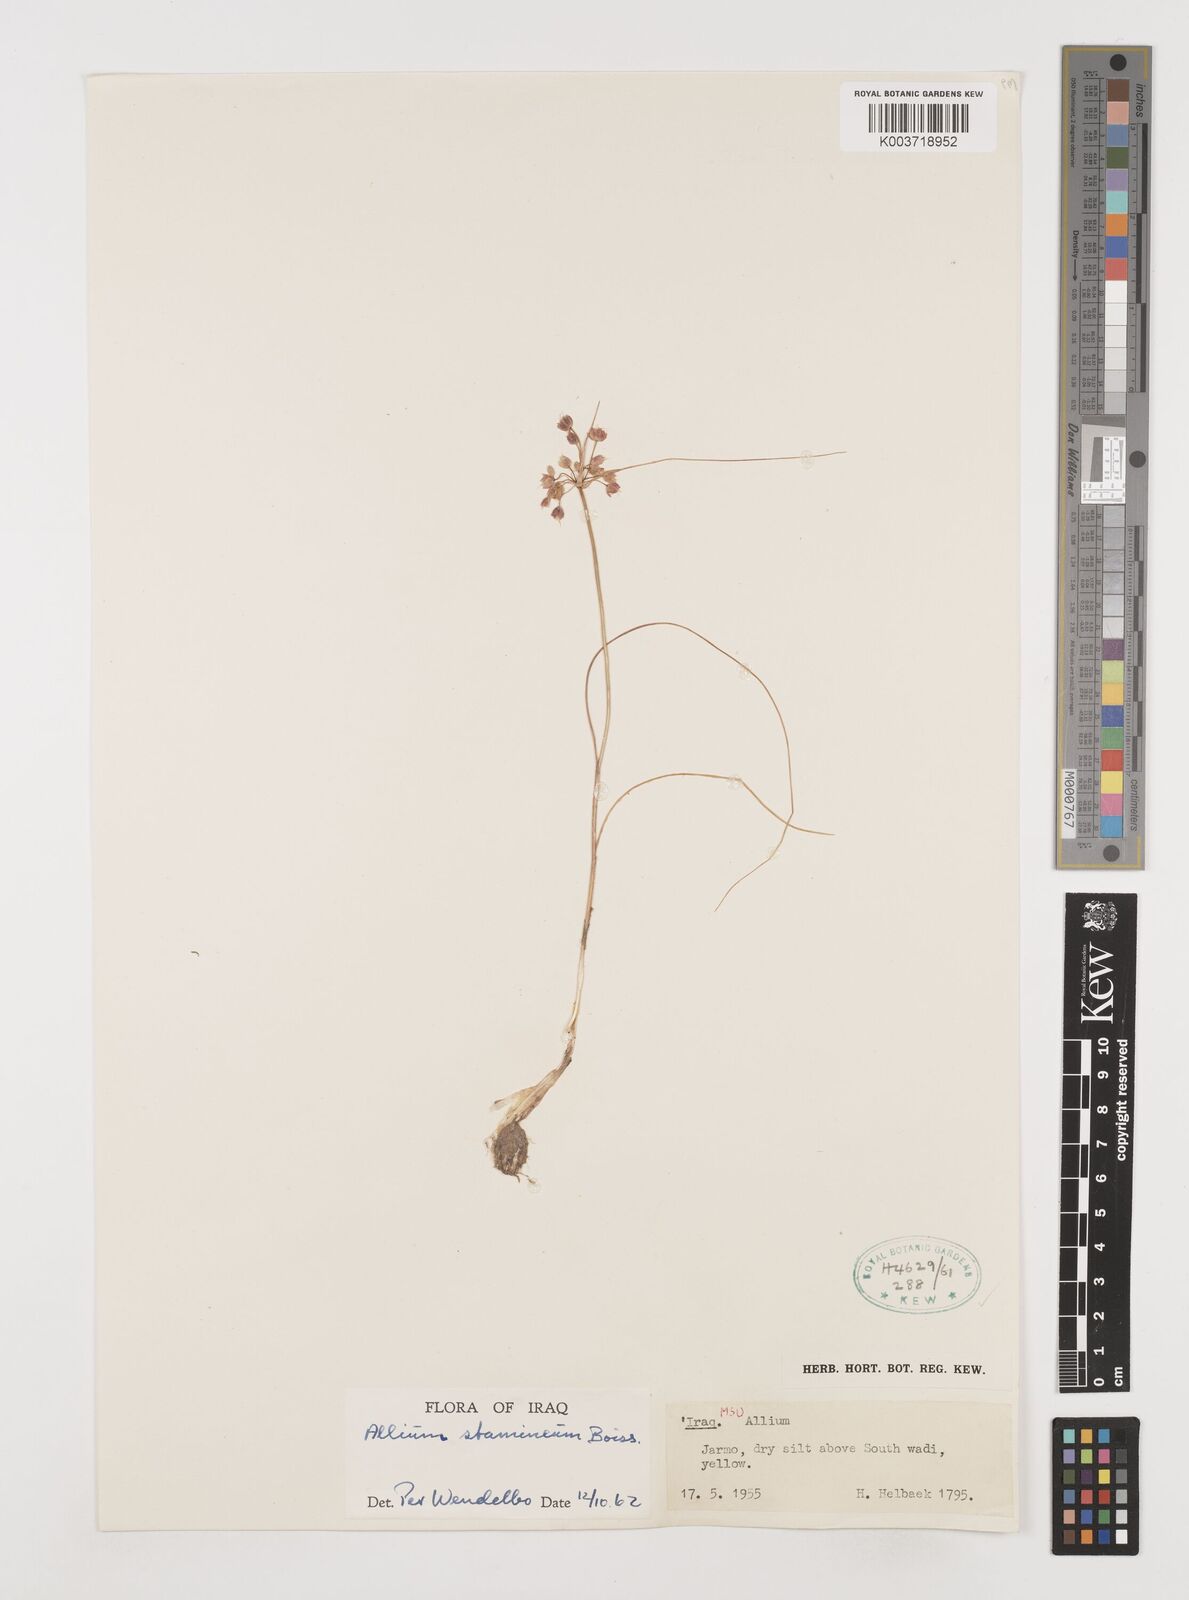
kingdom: Plantae
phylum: Tracheophyta
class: Liliopsida
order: Asparagales
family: Amaryllidaceae
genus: Allium
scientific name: Allium stamineum
